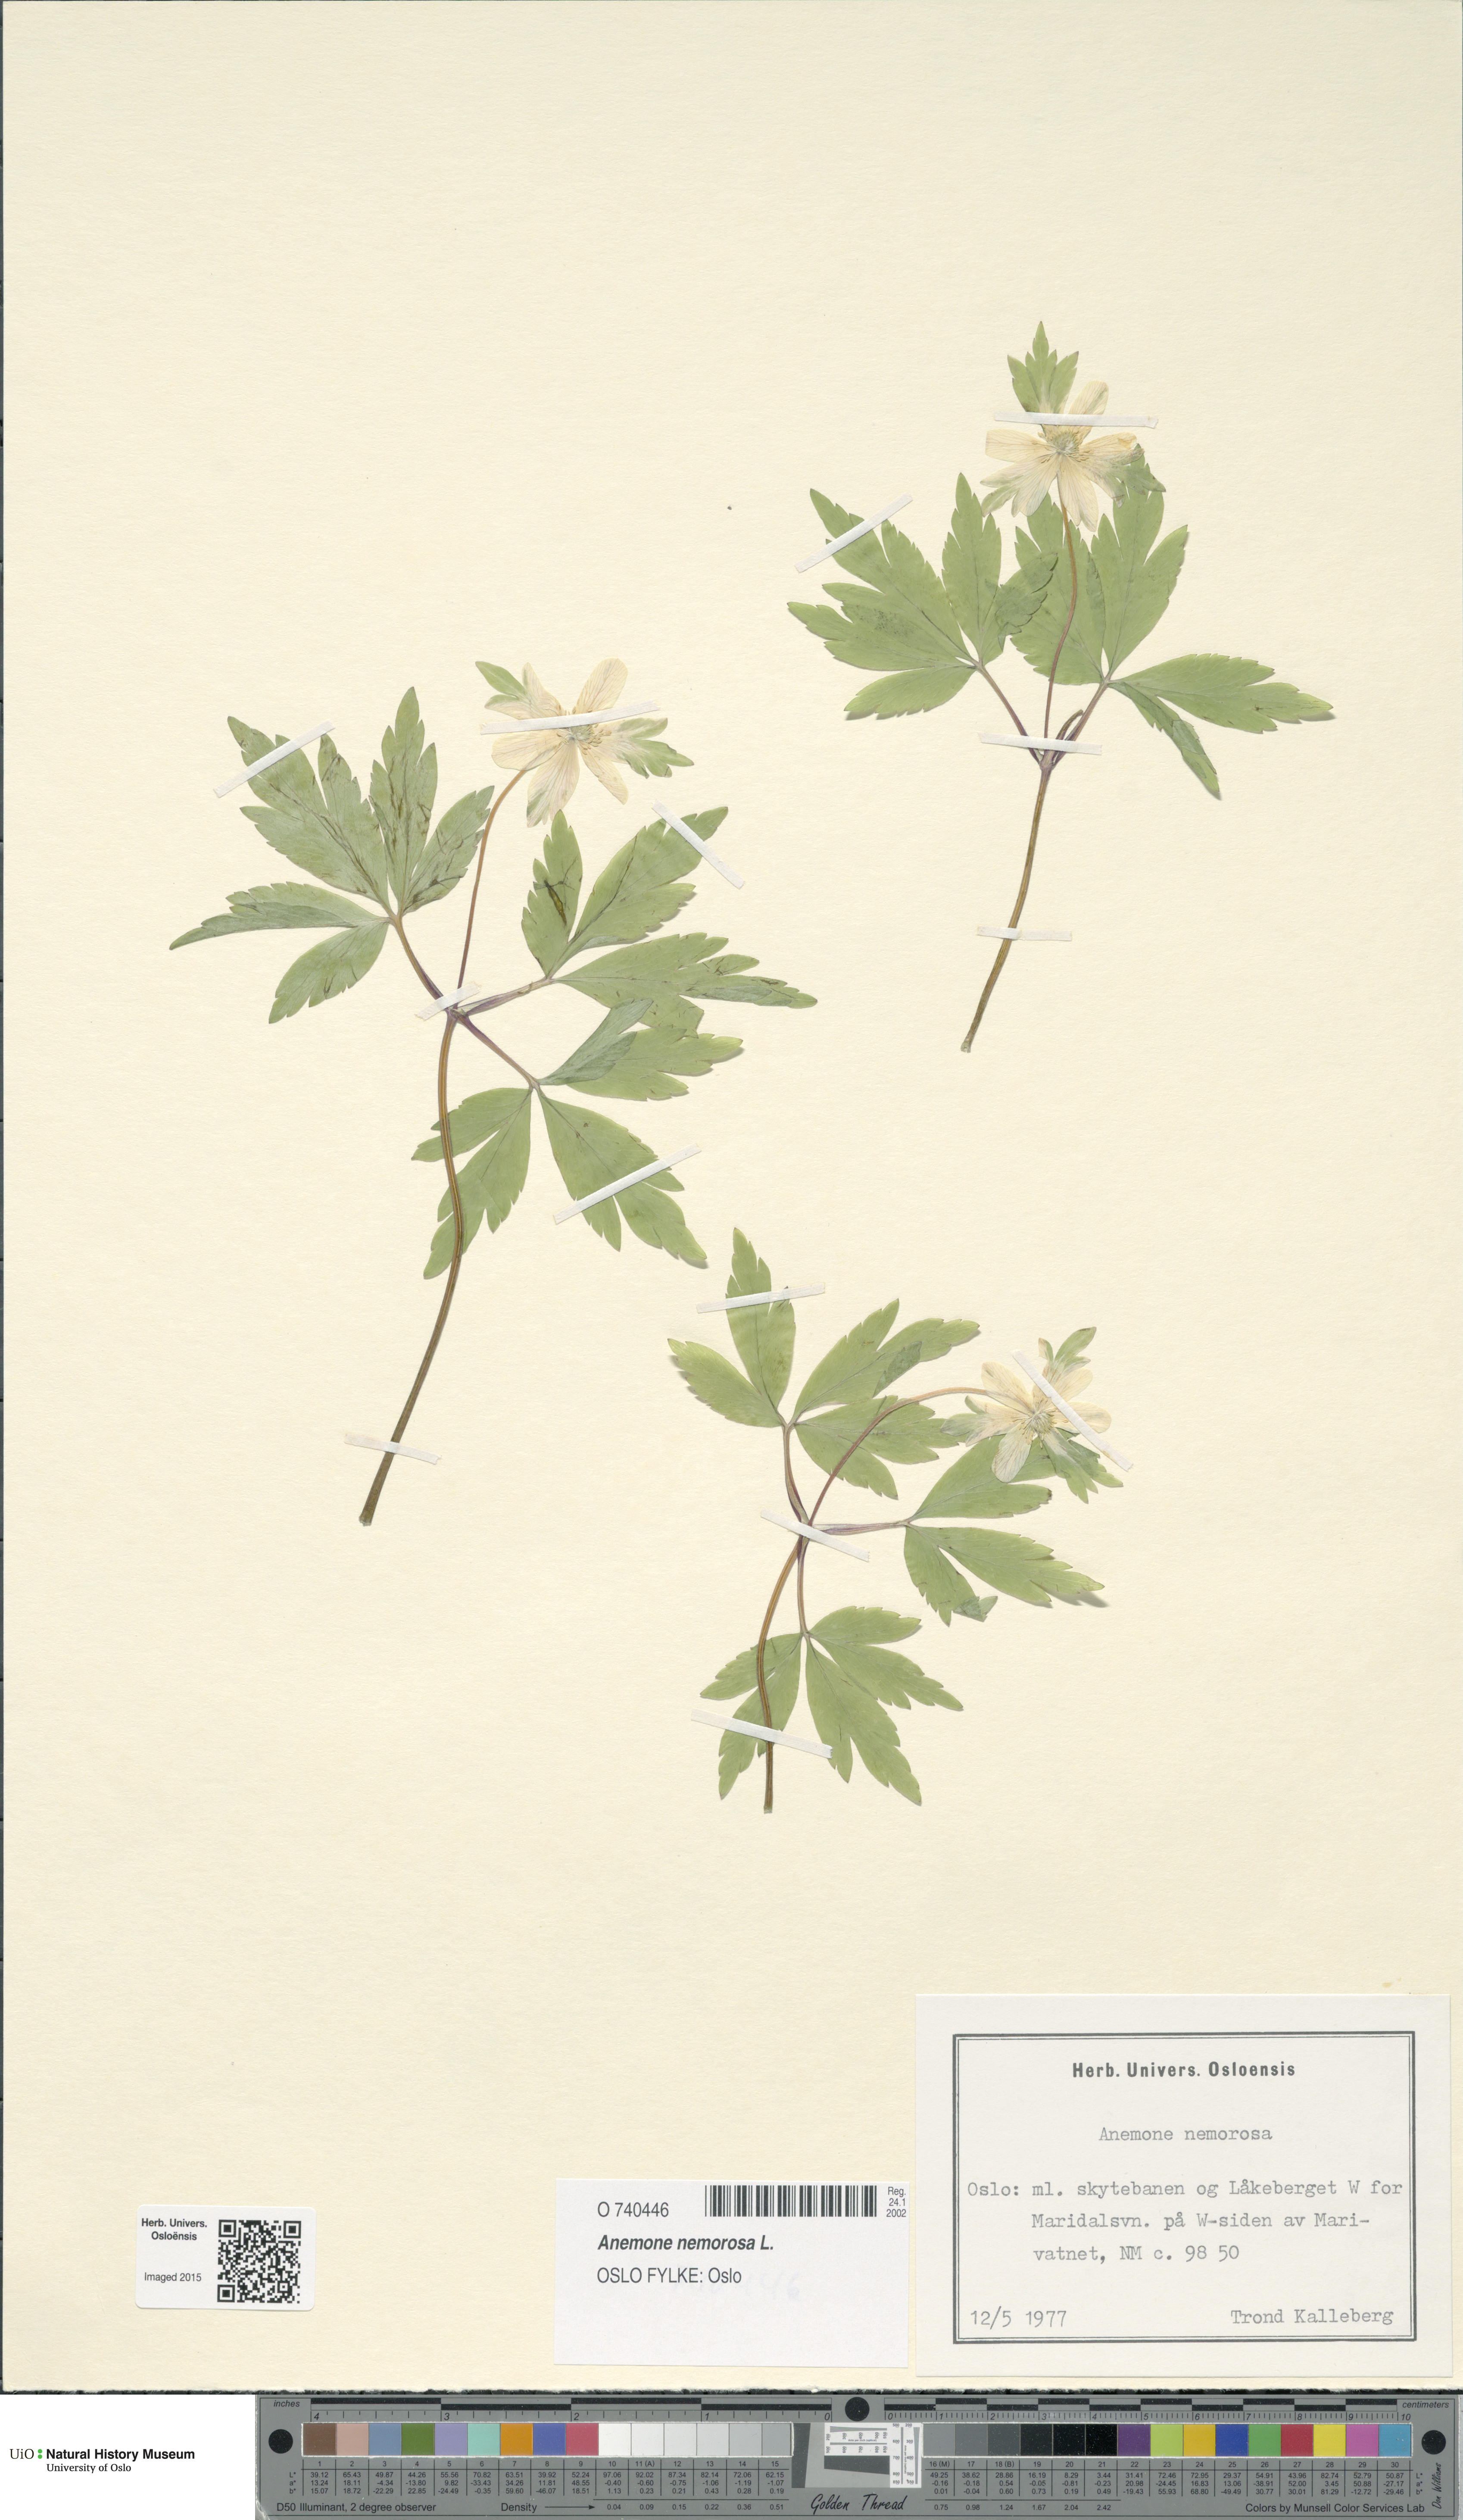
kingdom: Plantae
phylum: Tracheophyta
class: Magnoliopsida
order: Ranunculales
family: Ranunculaceae
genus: Anemone
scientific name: Anemone nemorosa
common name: Wood anemone
